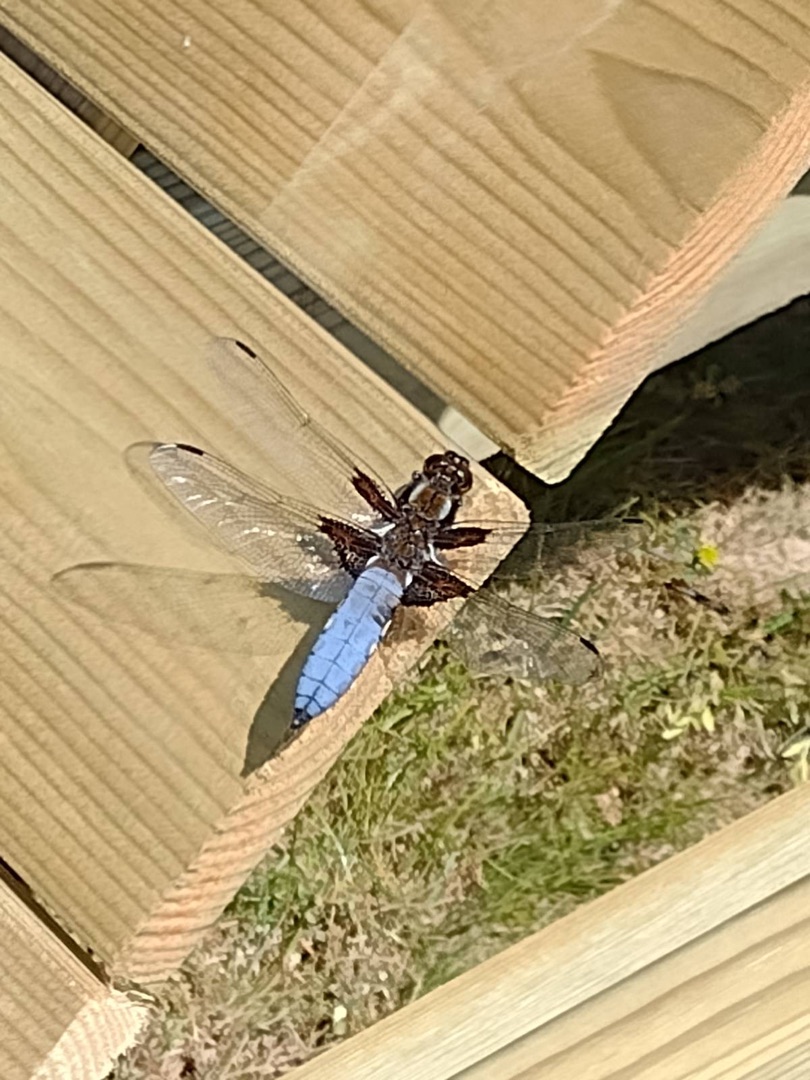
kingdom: Animalia
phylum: Arthropoda
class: Insecta
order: Odonata
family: Libellulidae
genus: Libellula
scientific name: Libellula depressa
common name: Blå libel
